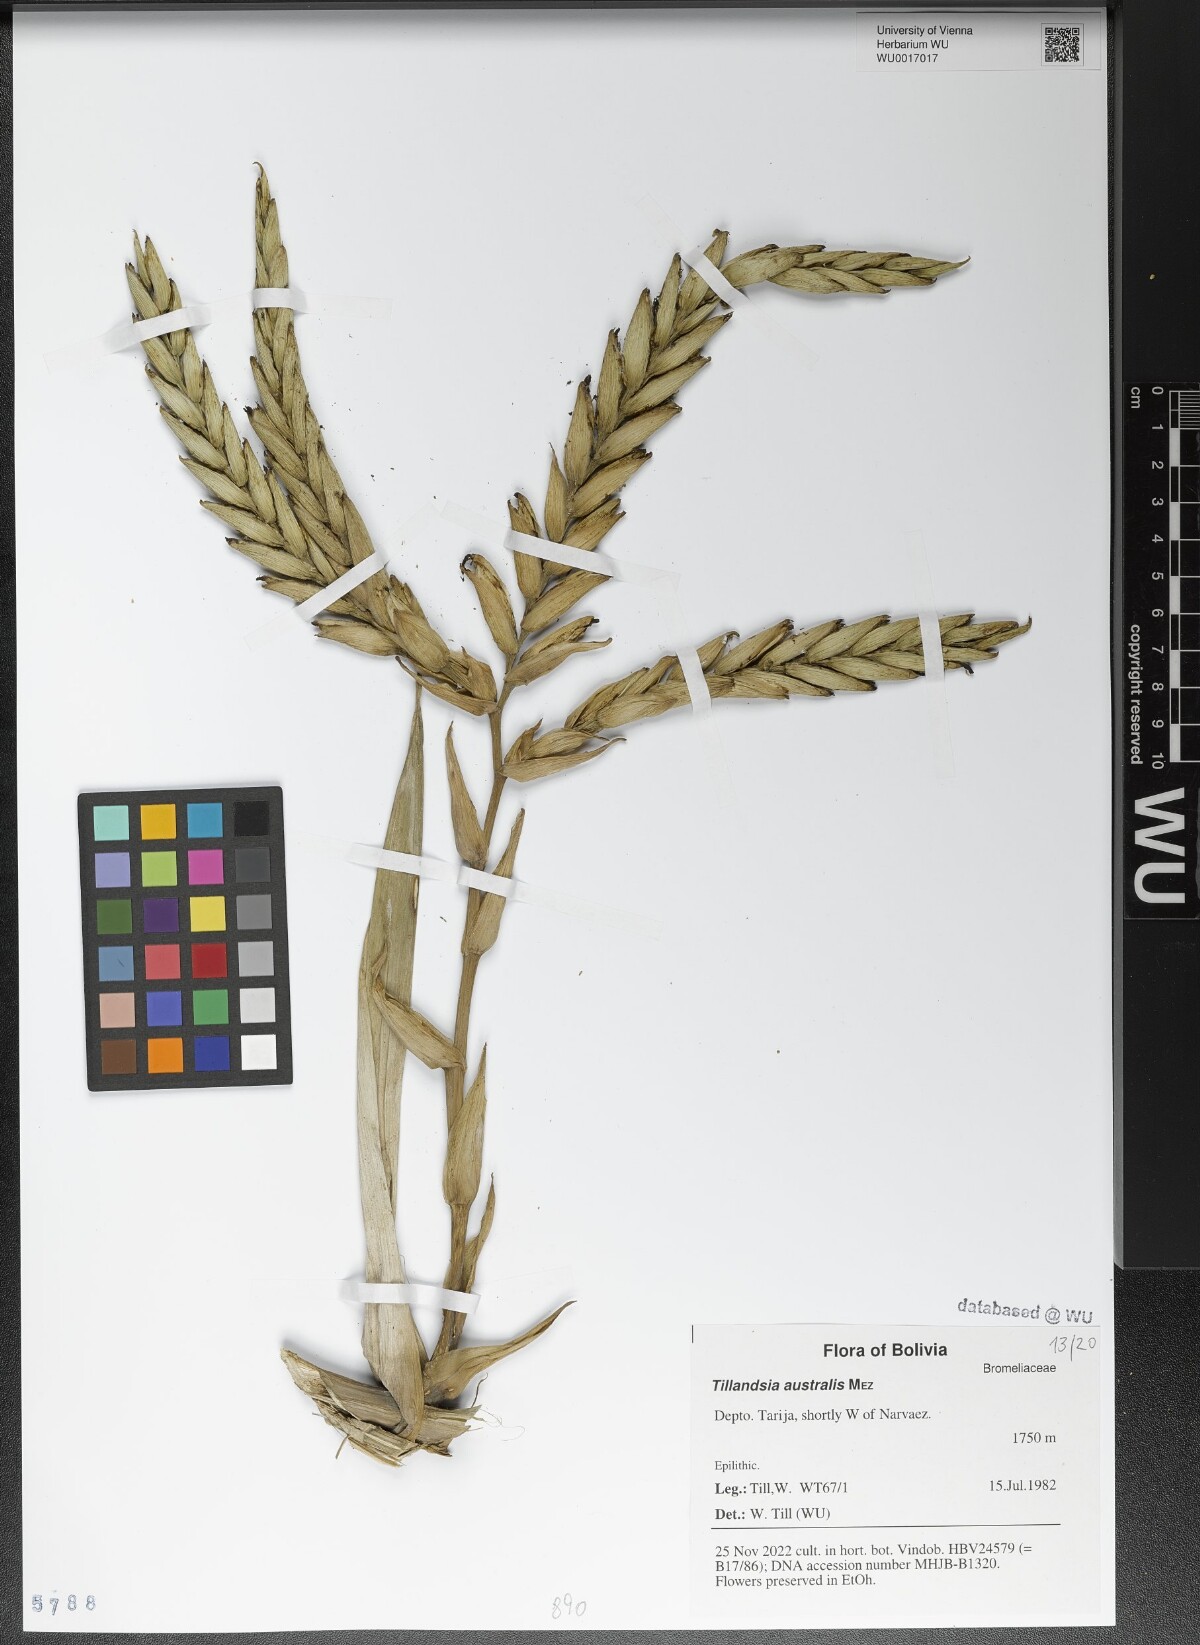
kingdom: Plantae
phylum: Tracheophyta
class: Liliopsida
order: Poales
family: Bromeliaceae
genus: Tillandsia
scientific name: Tillandsia australis
